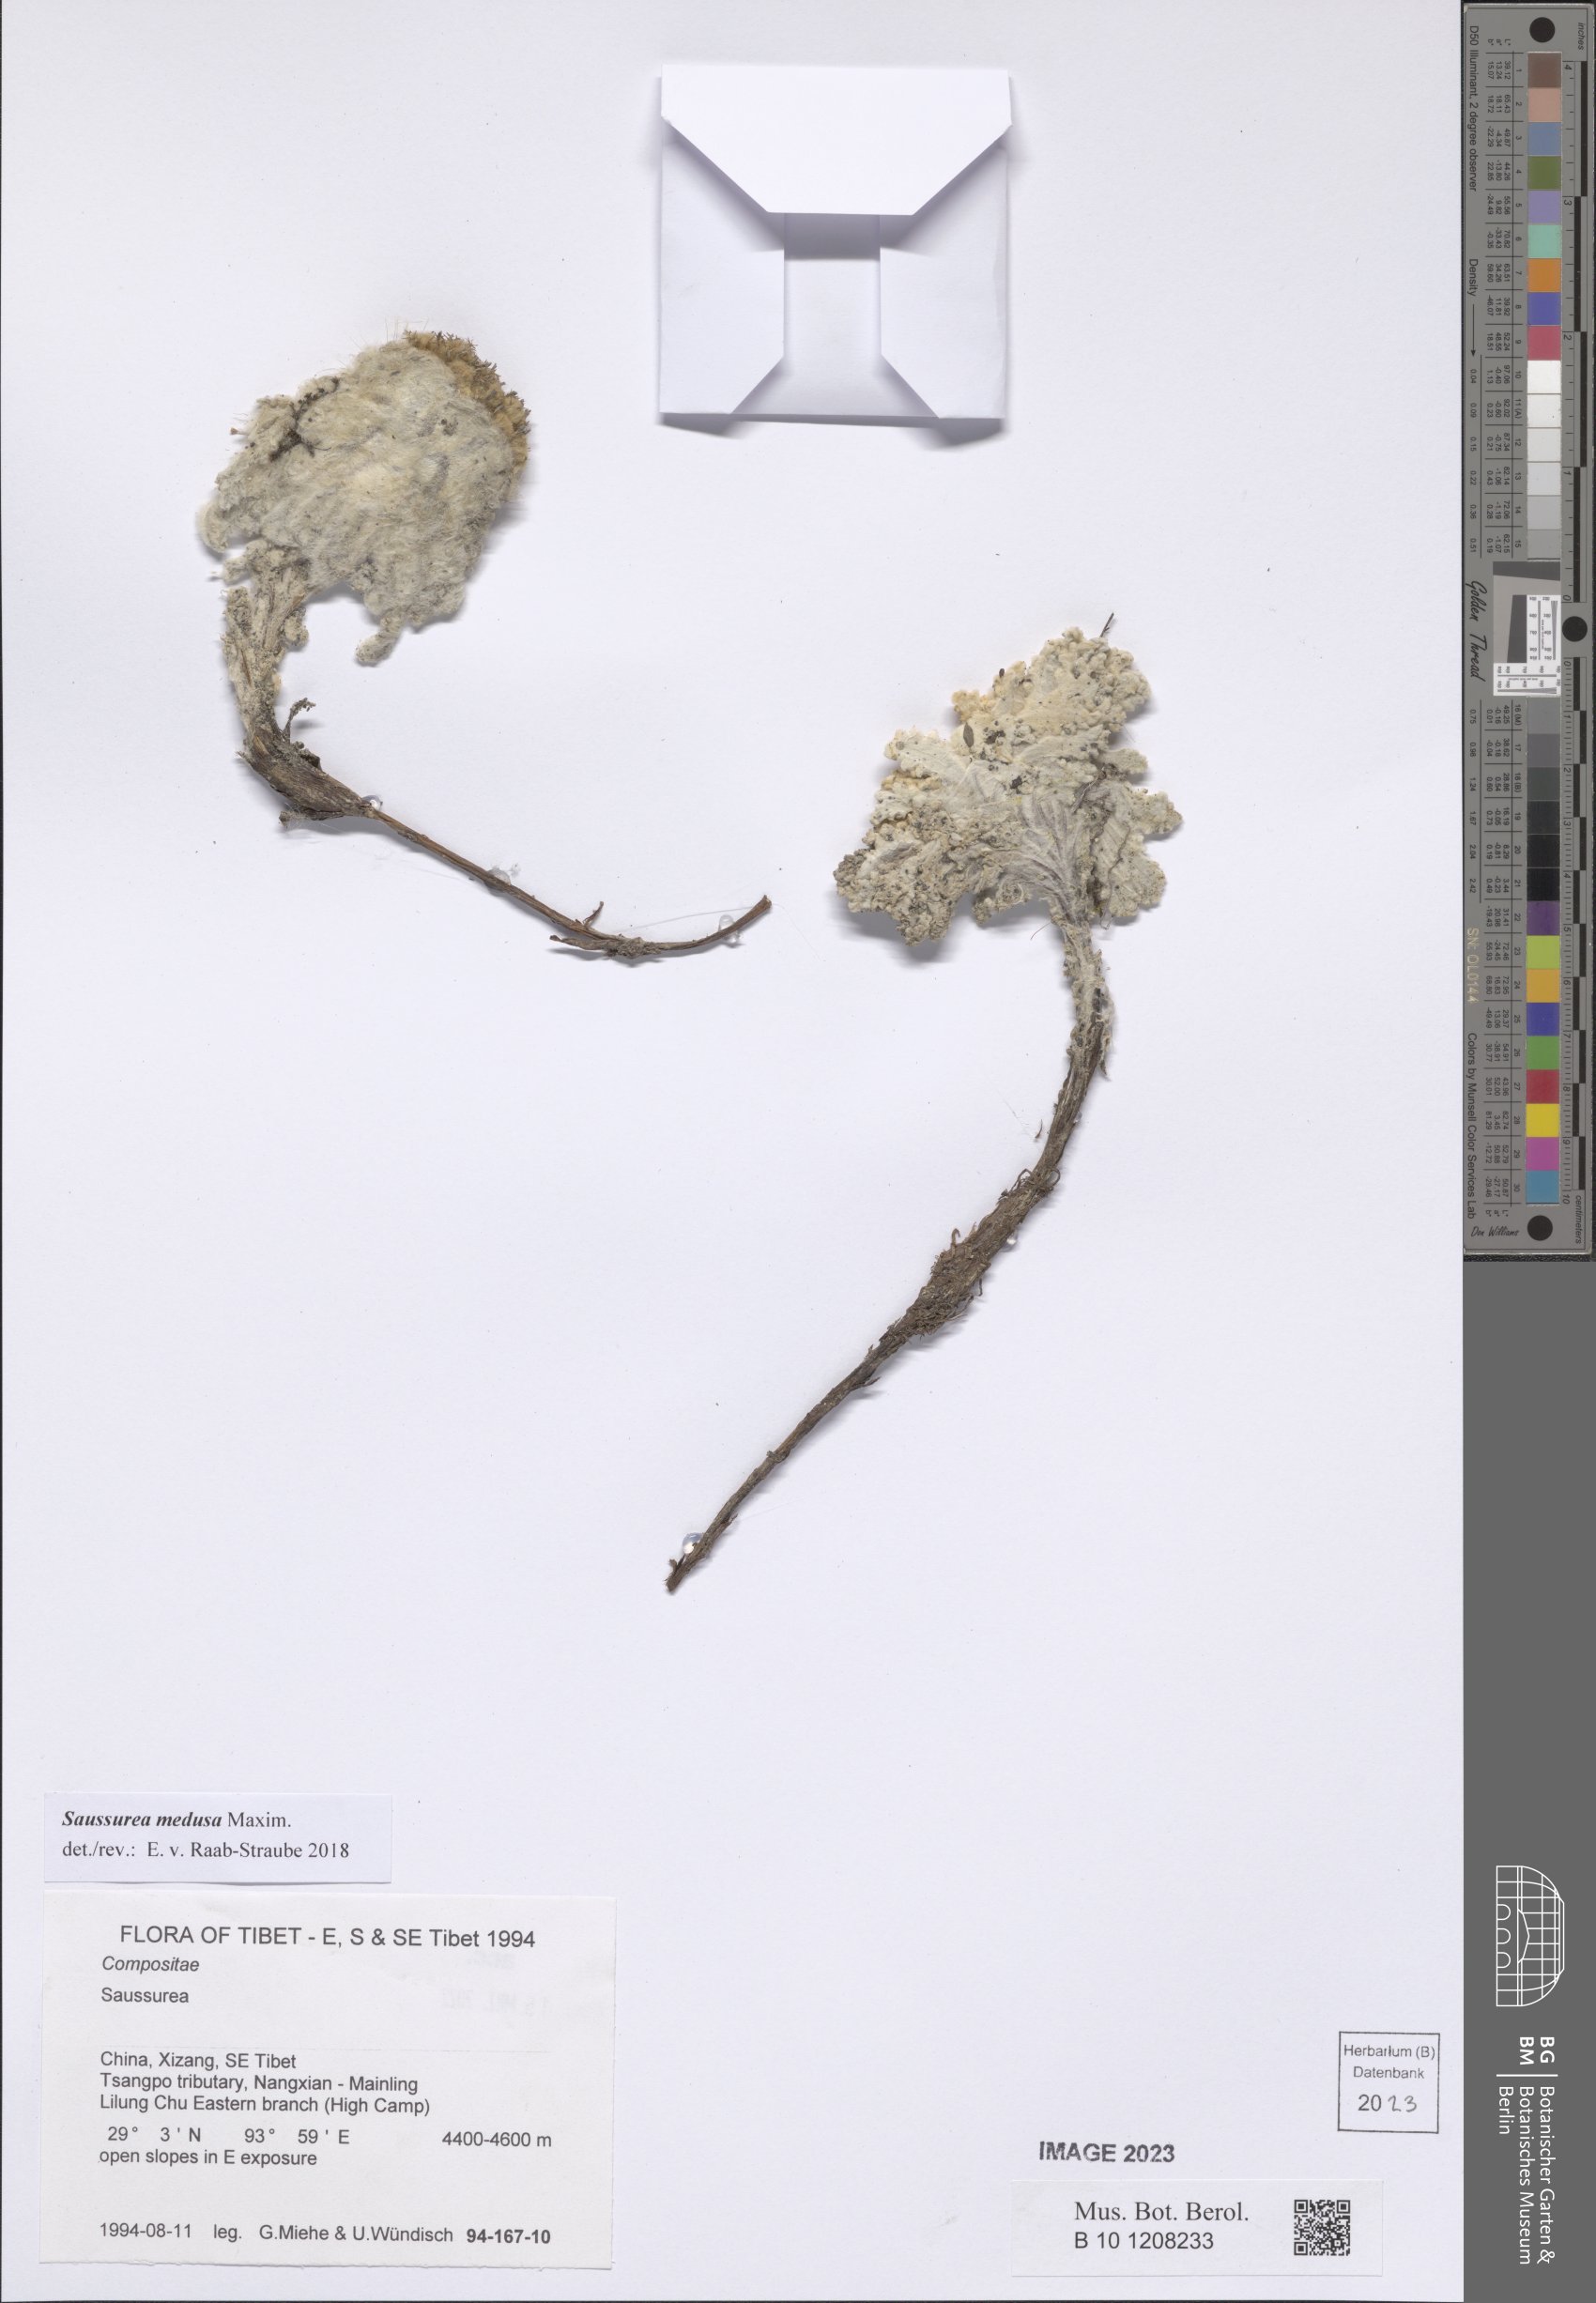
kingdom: Plantae
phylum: Tracheophyta
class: Magnoliopsida
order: Asterales
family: Asteraceae
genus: Saussurea
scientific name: Saussurea medusa
